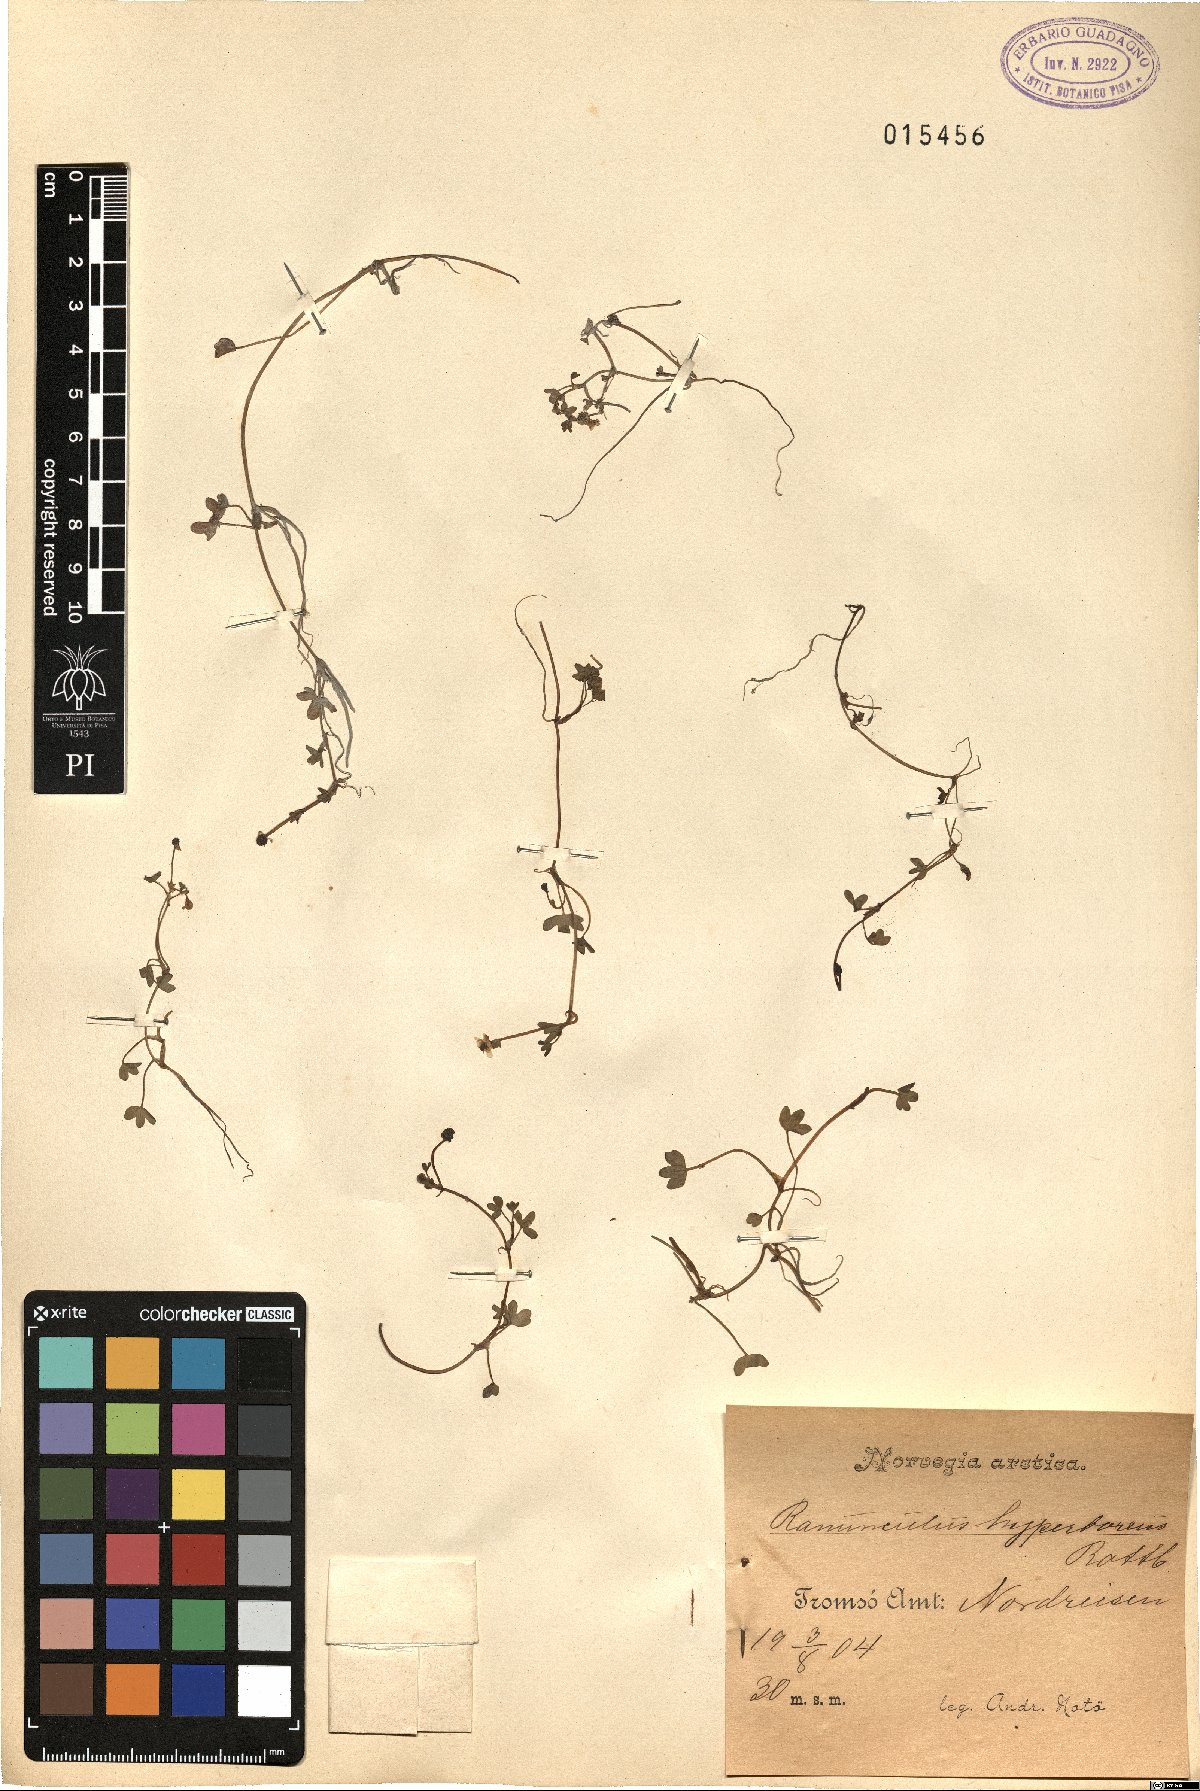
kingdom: Plantae
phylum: Tracheophyta
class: Magnoliopsida
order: Ranunculales
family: Ranunculaceae
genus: Ranunculus
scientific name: Ranunculus hyperboreus
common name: Arctic buttercup
